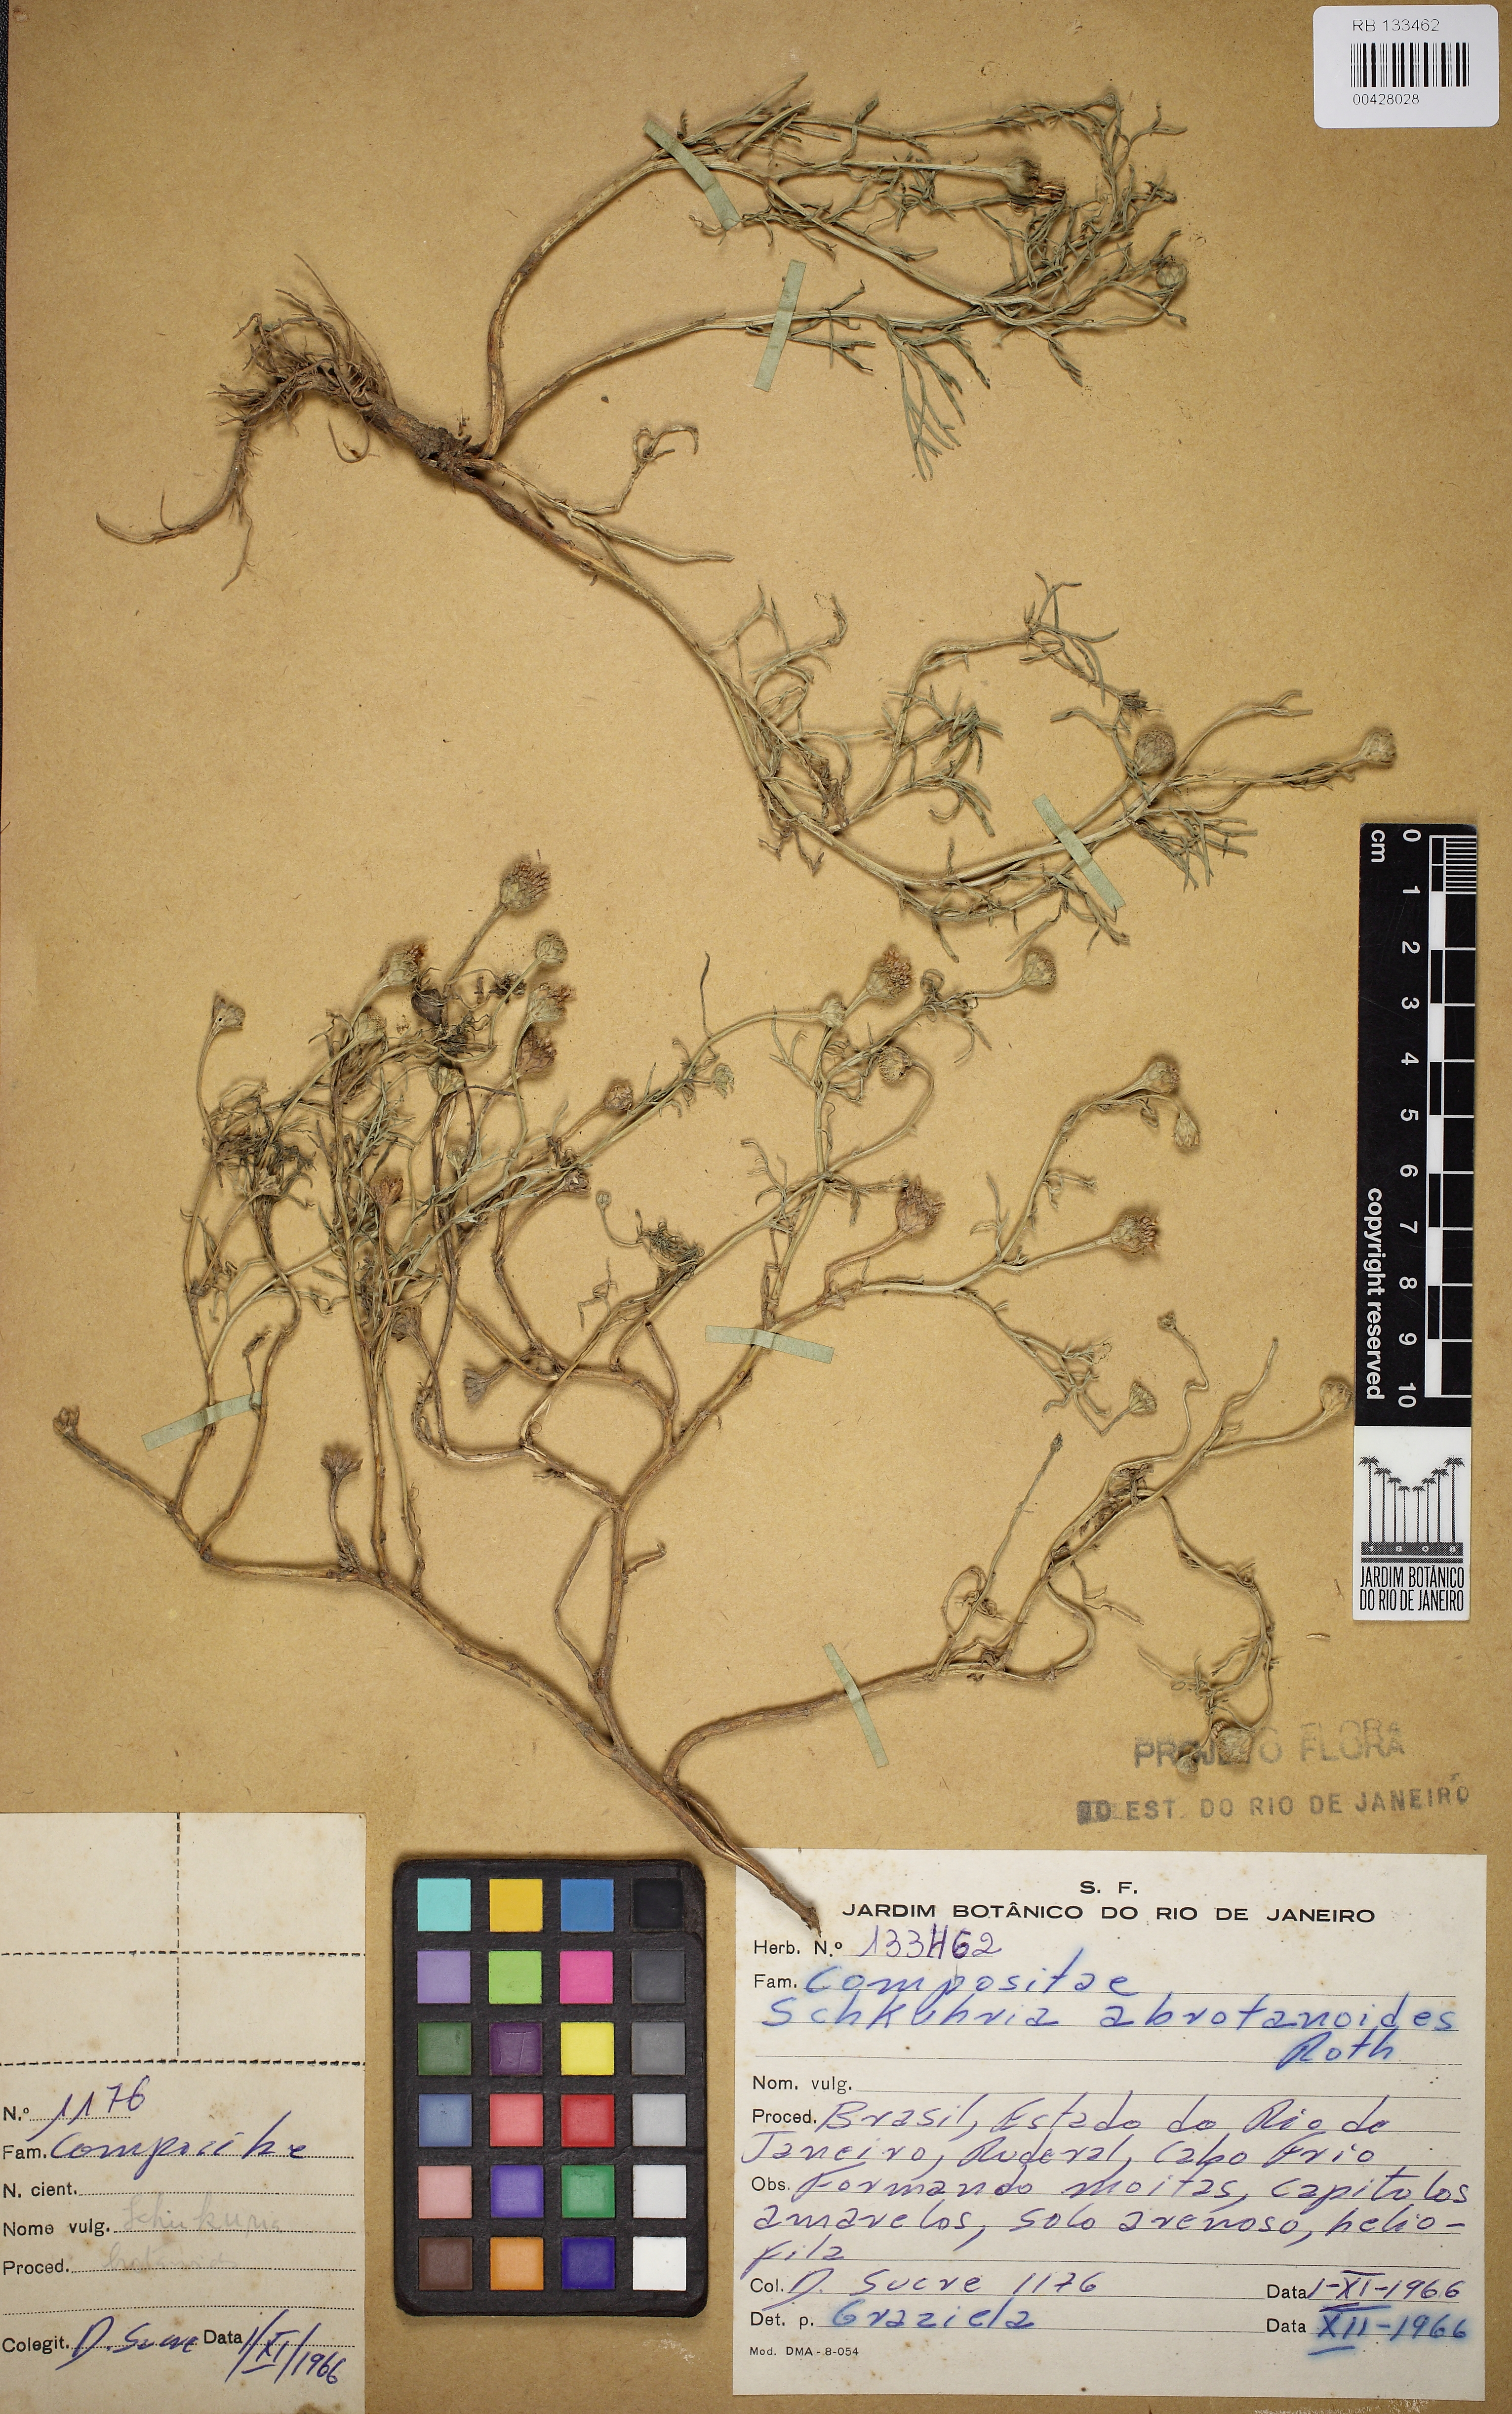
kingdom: Plantae
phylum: Tracheophyta
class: Magnoliopsida
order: Asterales
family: Asteraceae
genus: Schkuhria
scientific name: Schkuhria pinnata
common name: Dwarf marigold
